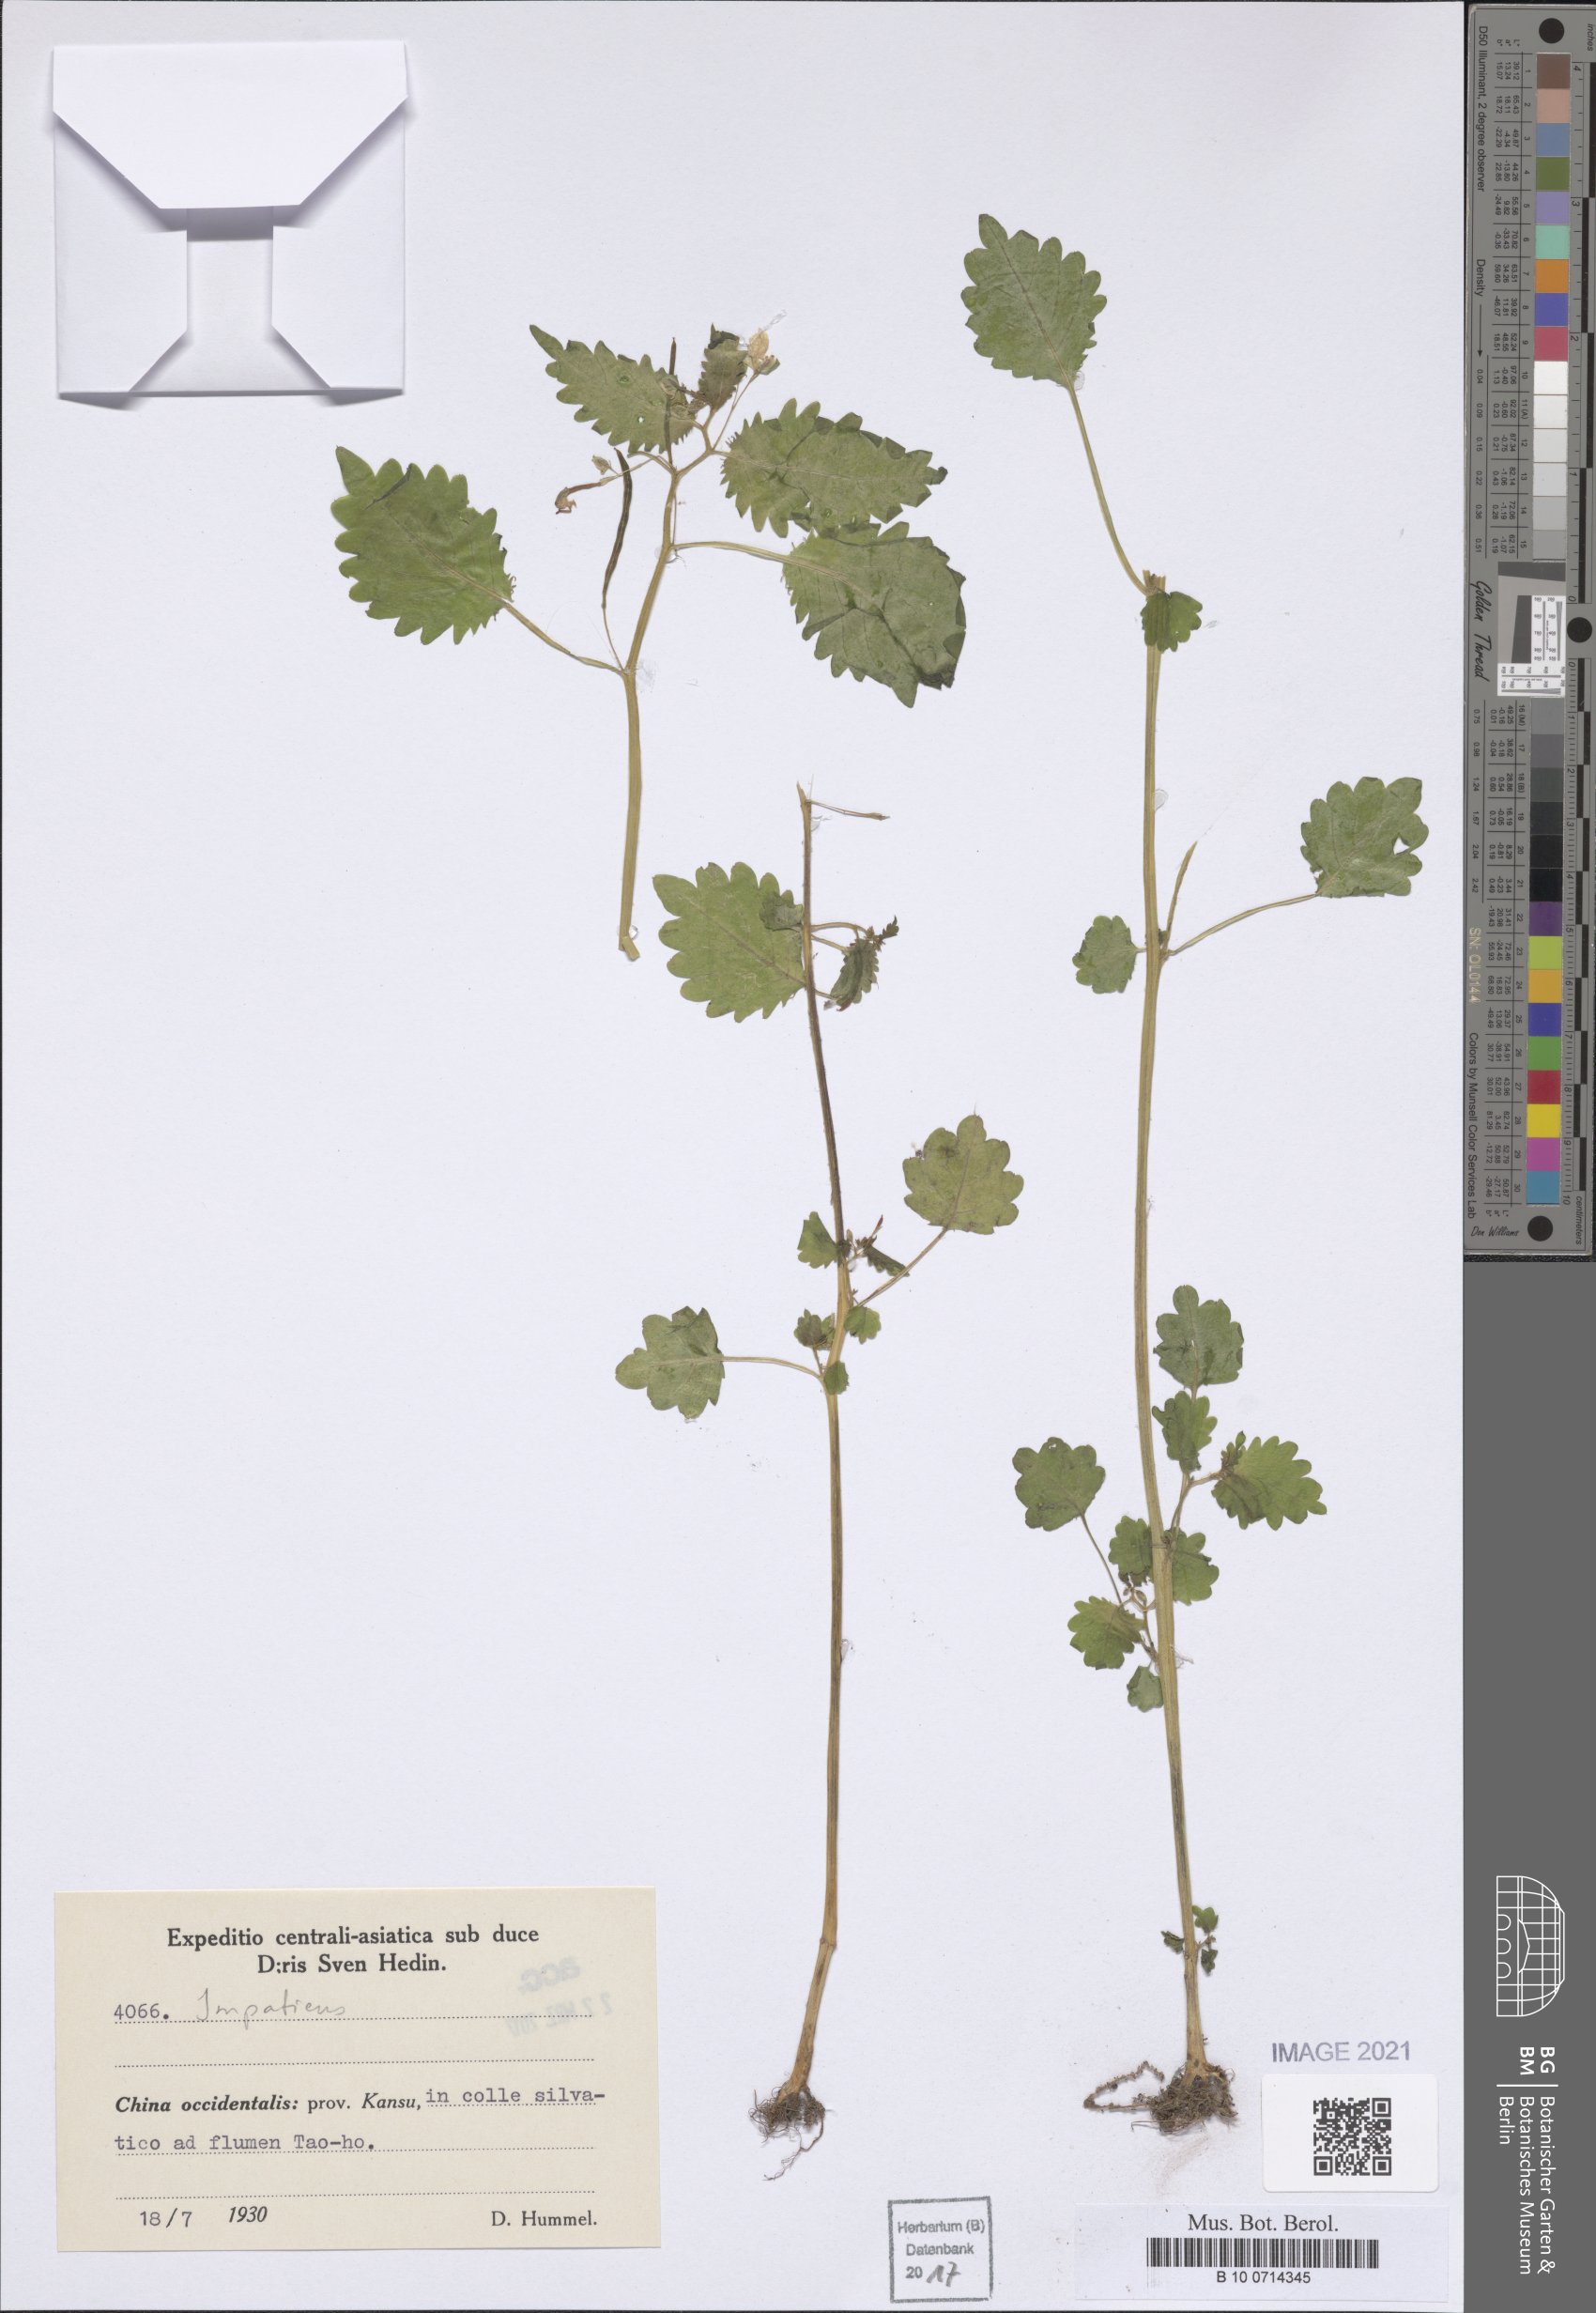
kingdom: Plantae
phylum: Tracheophyta
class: Magnoliopsida
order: Ericales
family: Balsaminaceae
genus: Impatiens
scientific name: Impatiens
